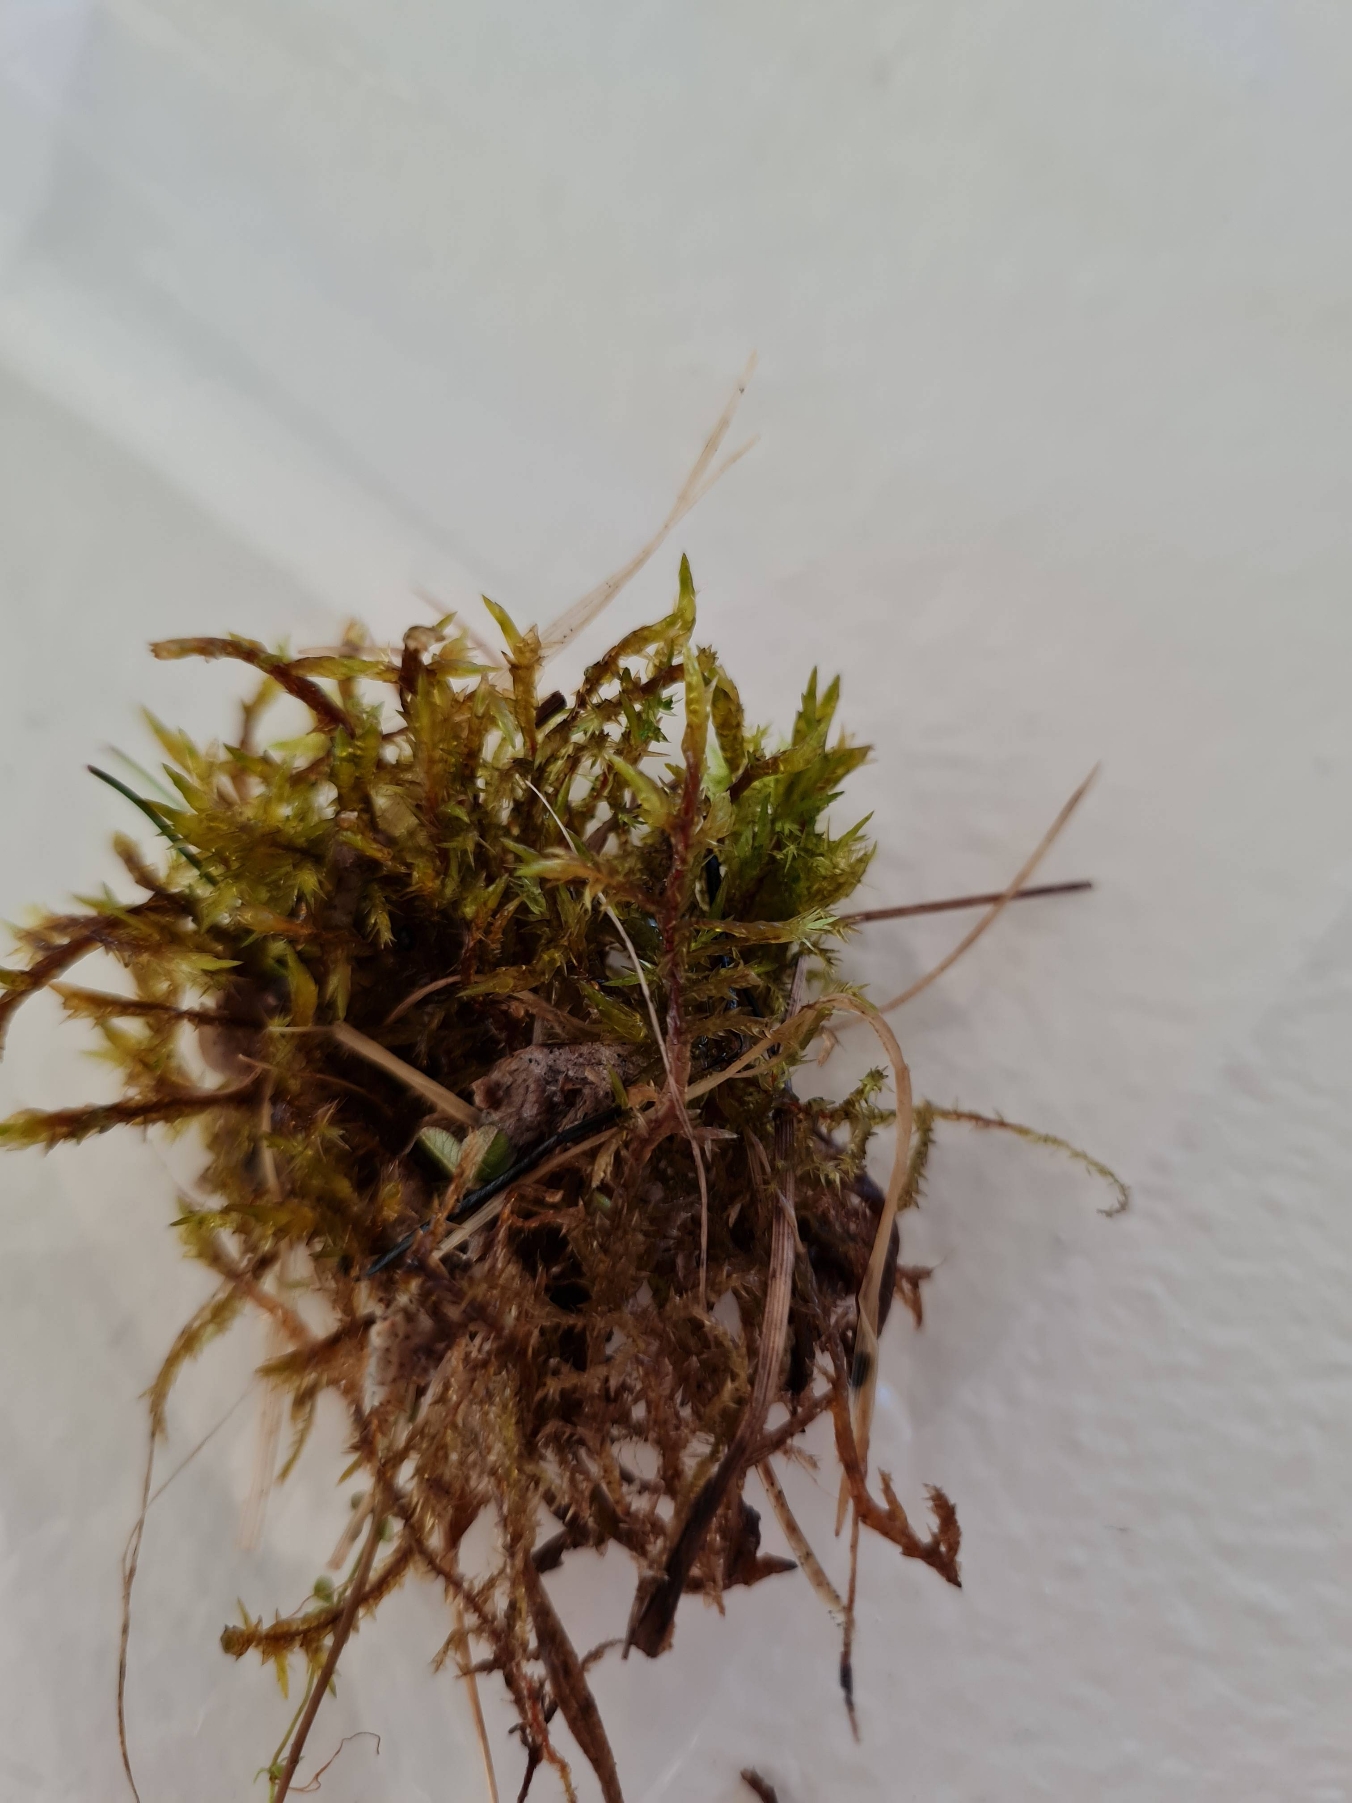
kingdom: Plantae
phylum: Bryophyta
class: Bryopsida
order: Hypnales
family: Pylaisiaceae
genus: Calliergonella
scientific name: Calliergonella cuspidata
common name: Spids spydmos
